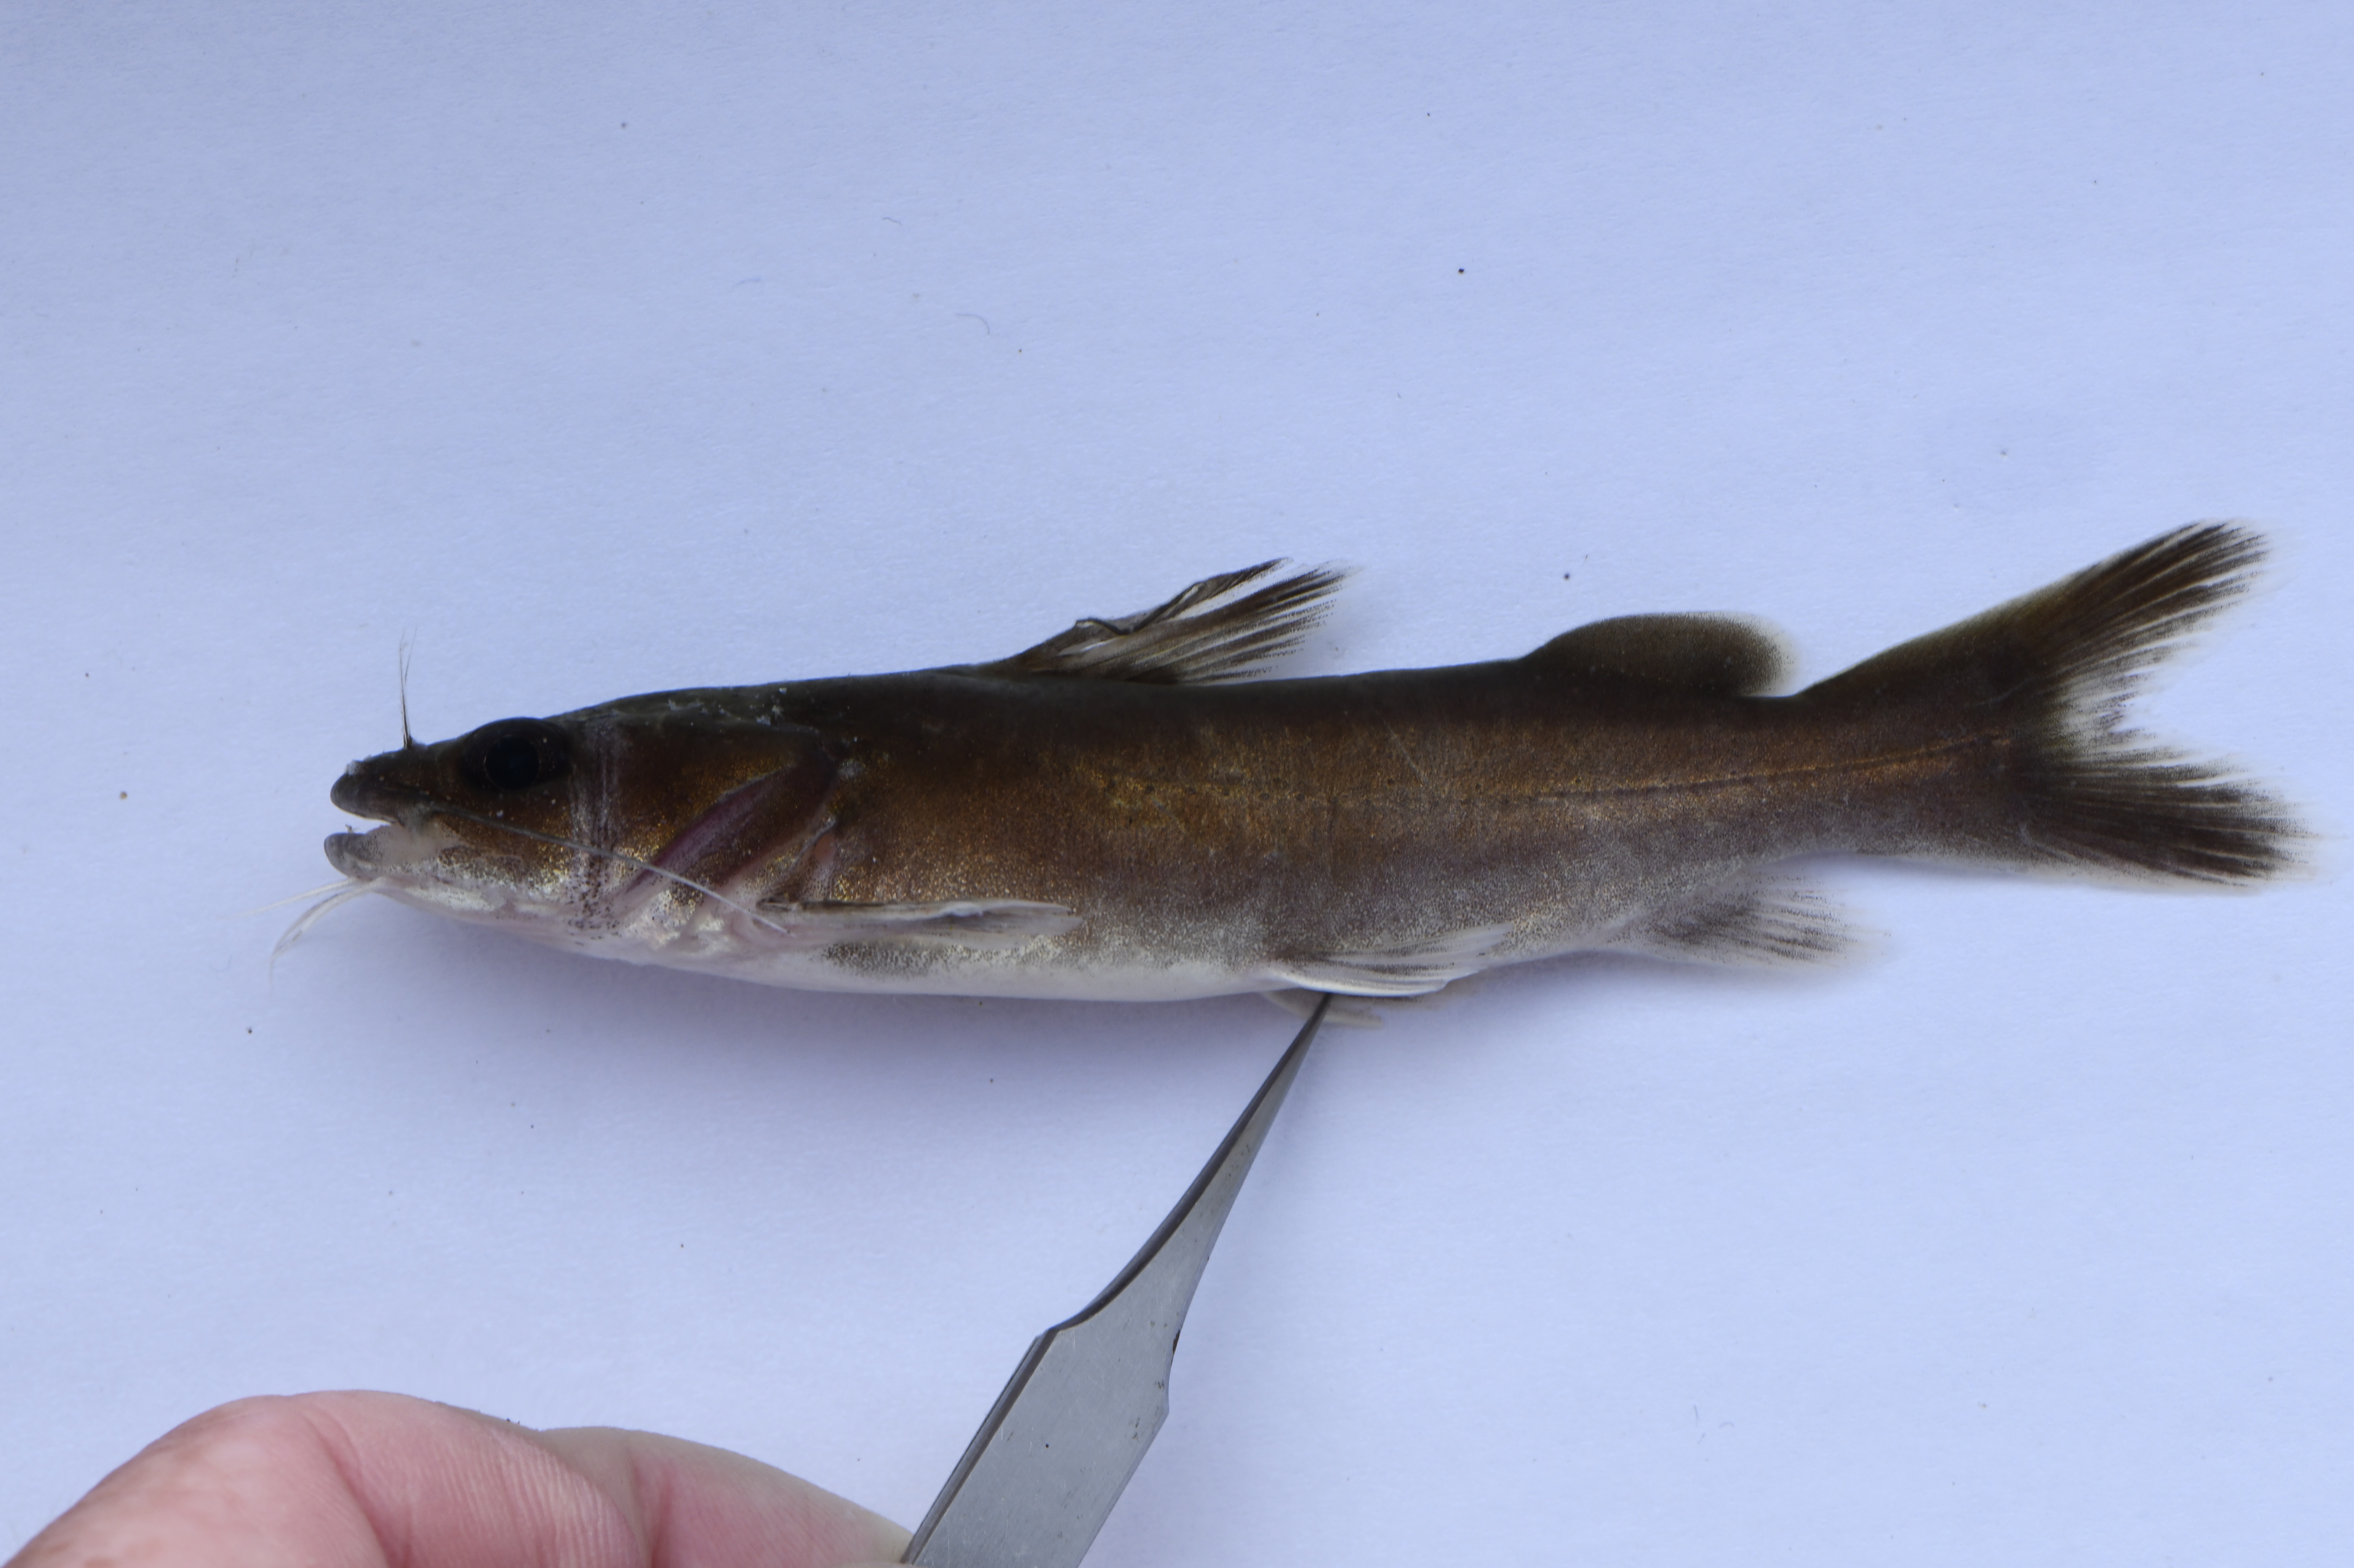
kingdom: Animalia
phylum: Chordata
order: Siluriformes
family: Claroteidae
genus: Bathybagrus
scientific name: Bathybagrus platycephalus
